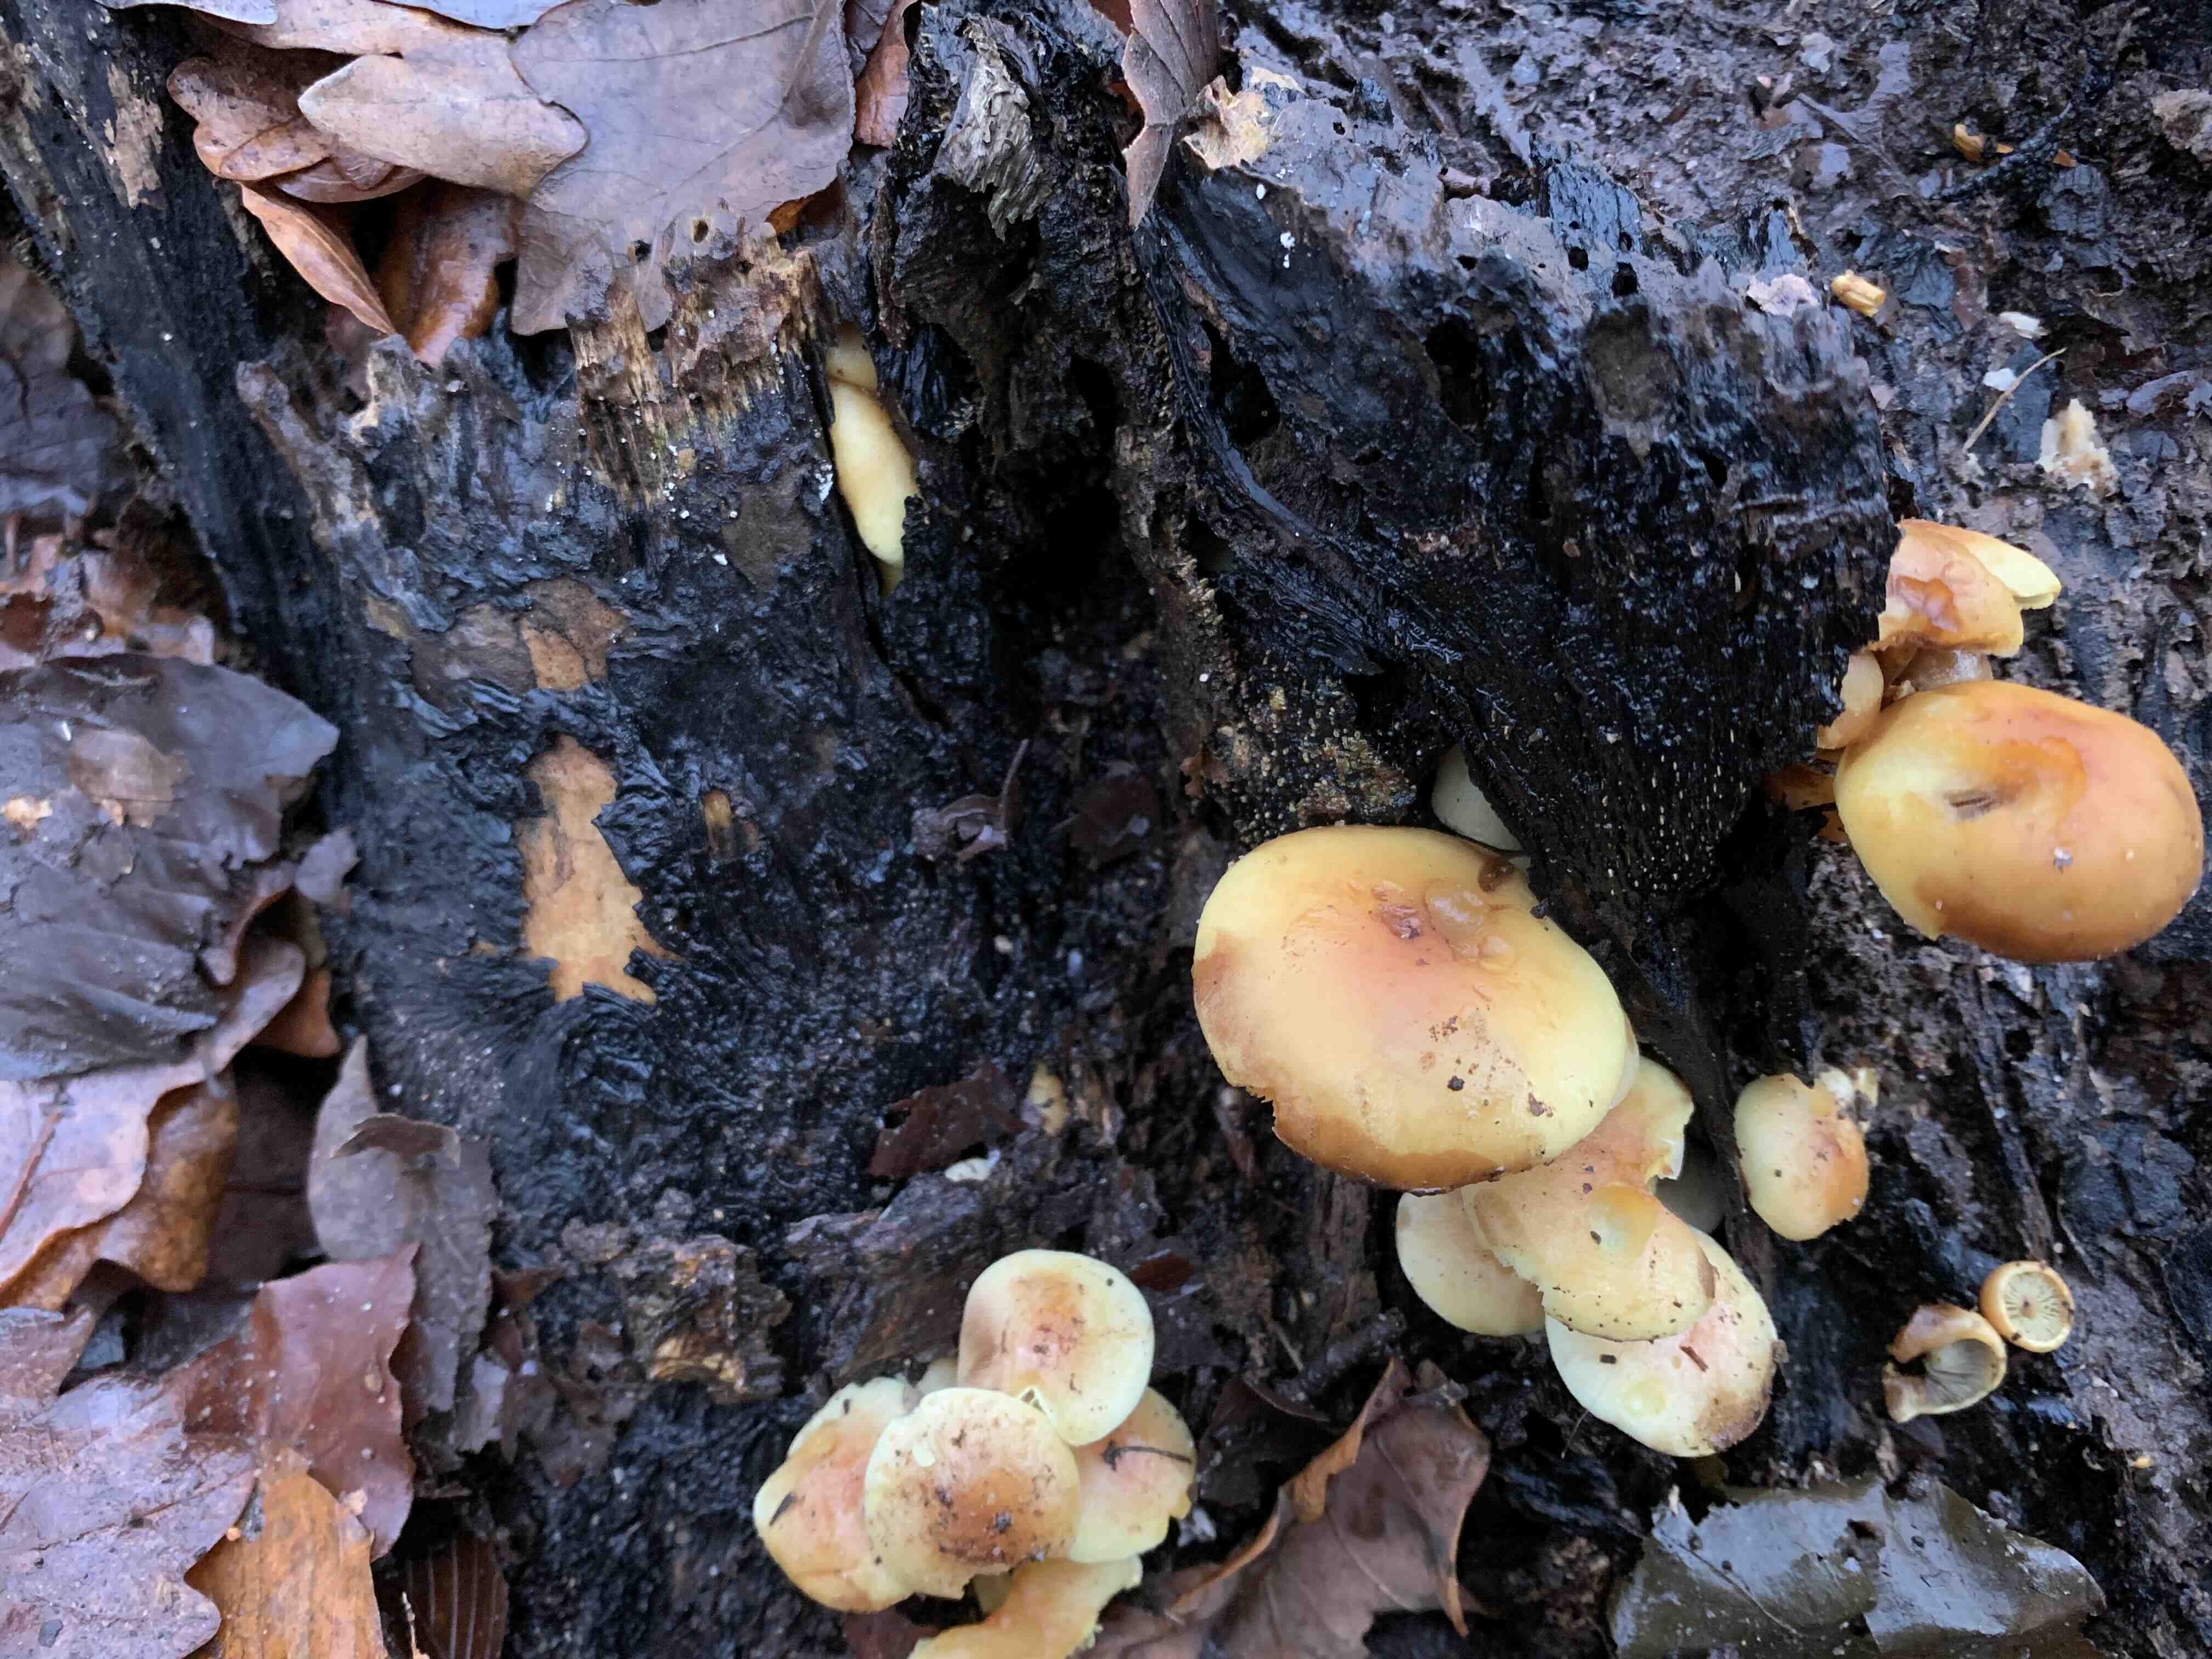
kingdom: Fungi
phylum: Basidiomycota
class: Agaricomycetes
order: Agaricales
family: Strophariaceae
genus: Hypholoma
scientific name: Hypholoma fasciculare
